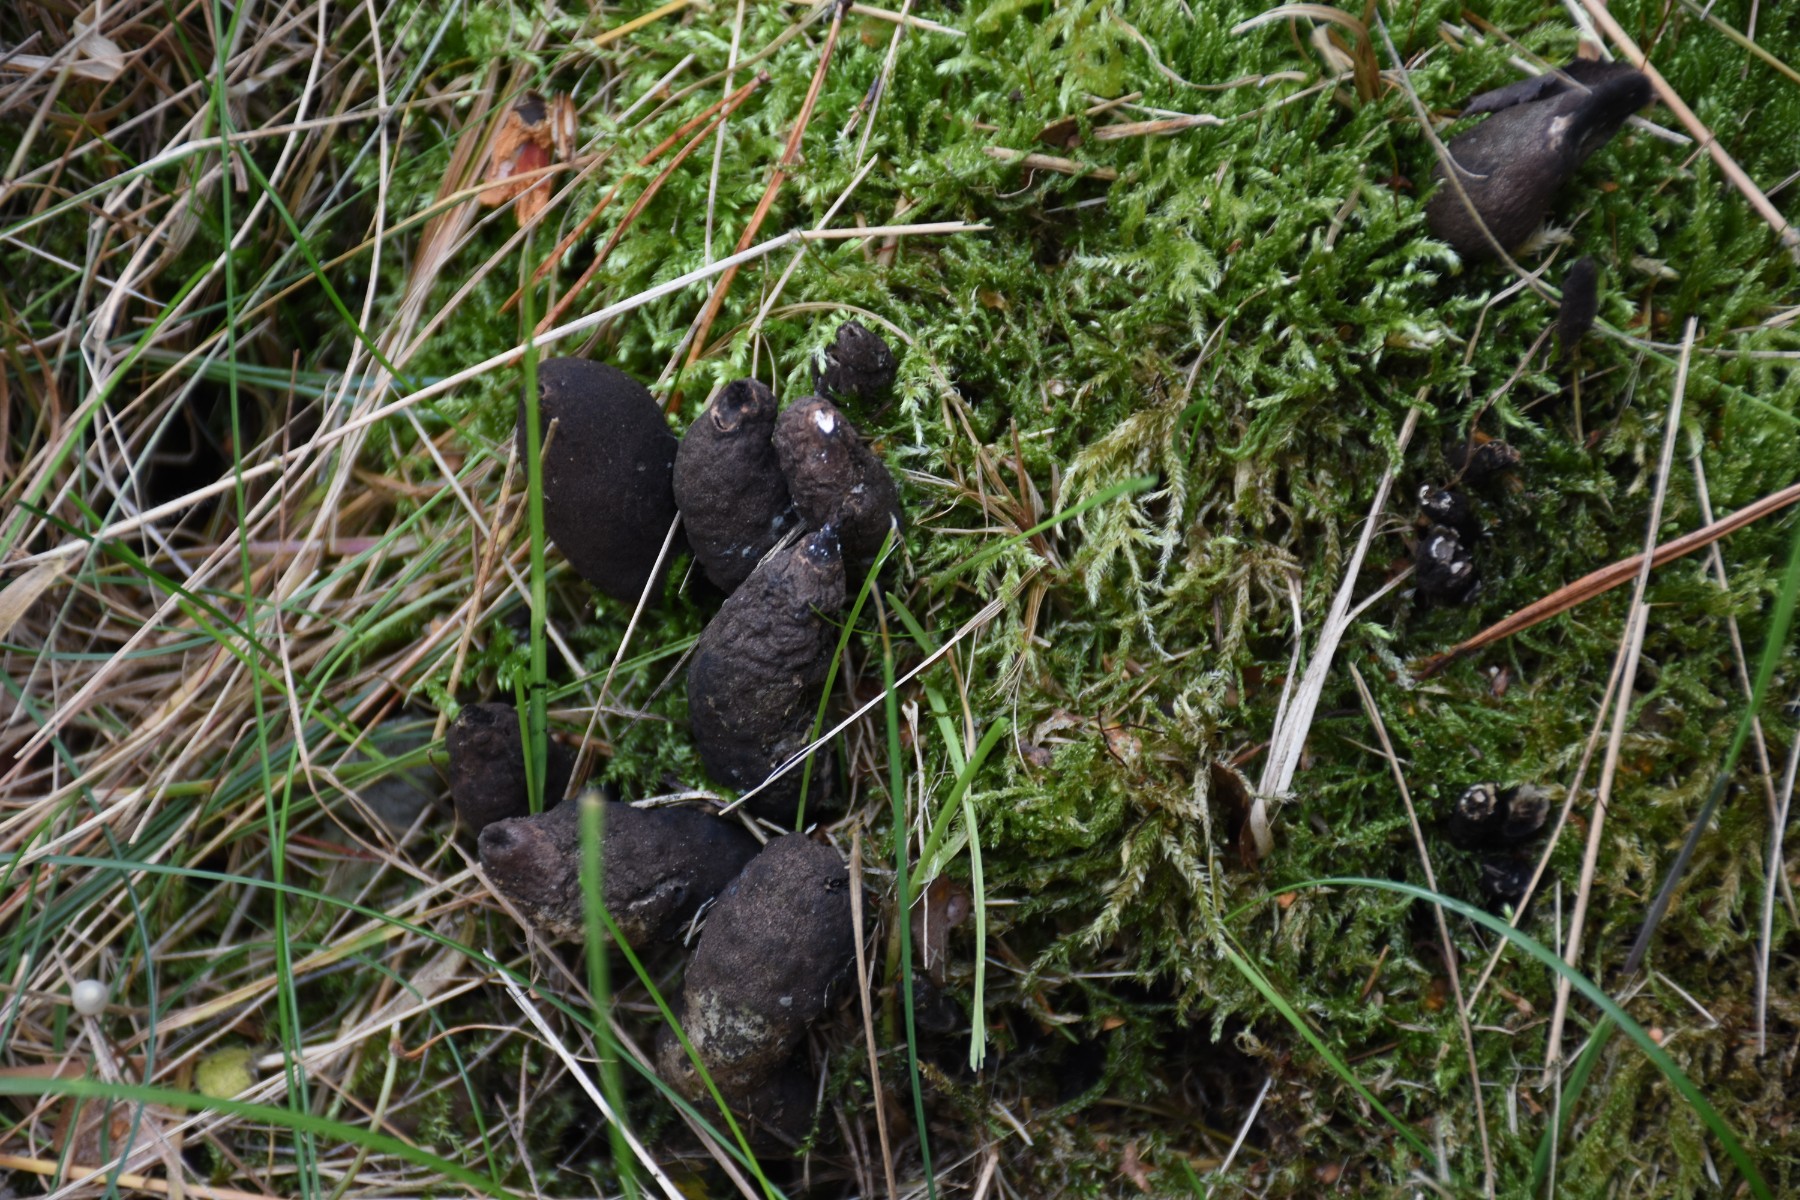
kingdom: Fungi
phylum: Ascomycota
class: Sordariomycetes
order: Xylariales
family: Xylariaceae
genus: Xylaria
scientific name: Xylaria polymorpha
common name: kølle-stødsvamp
